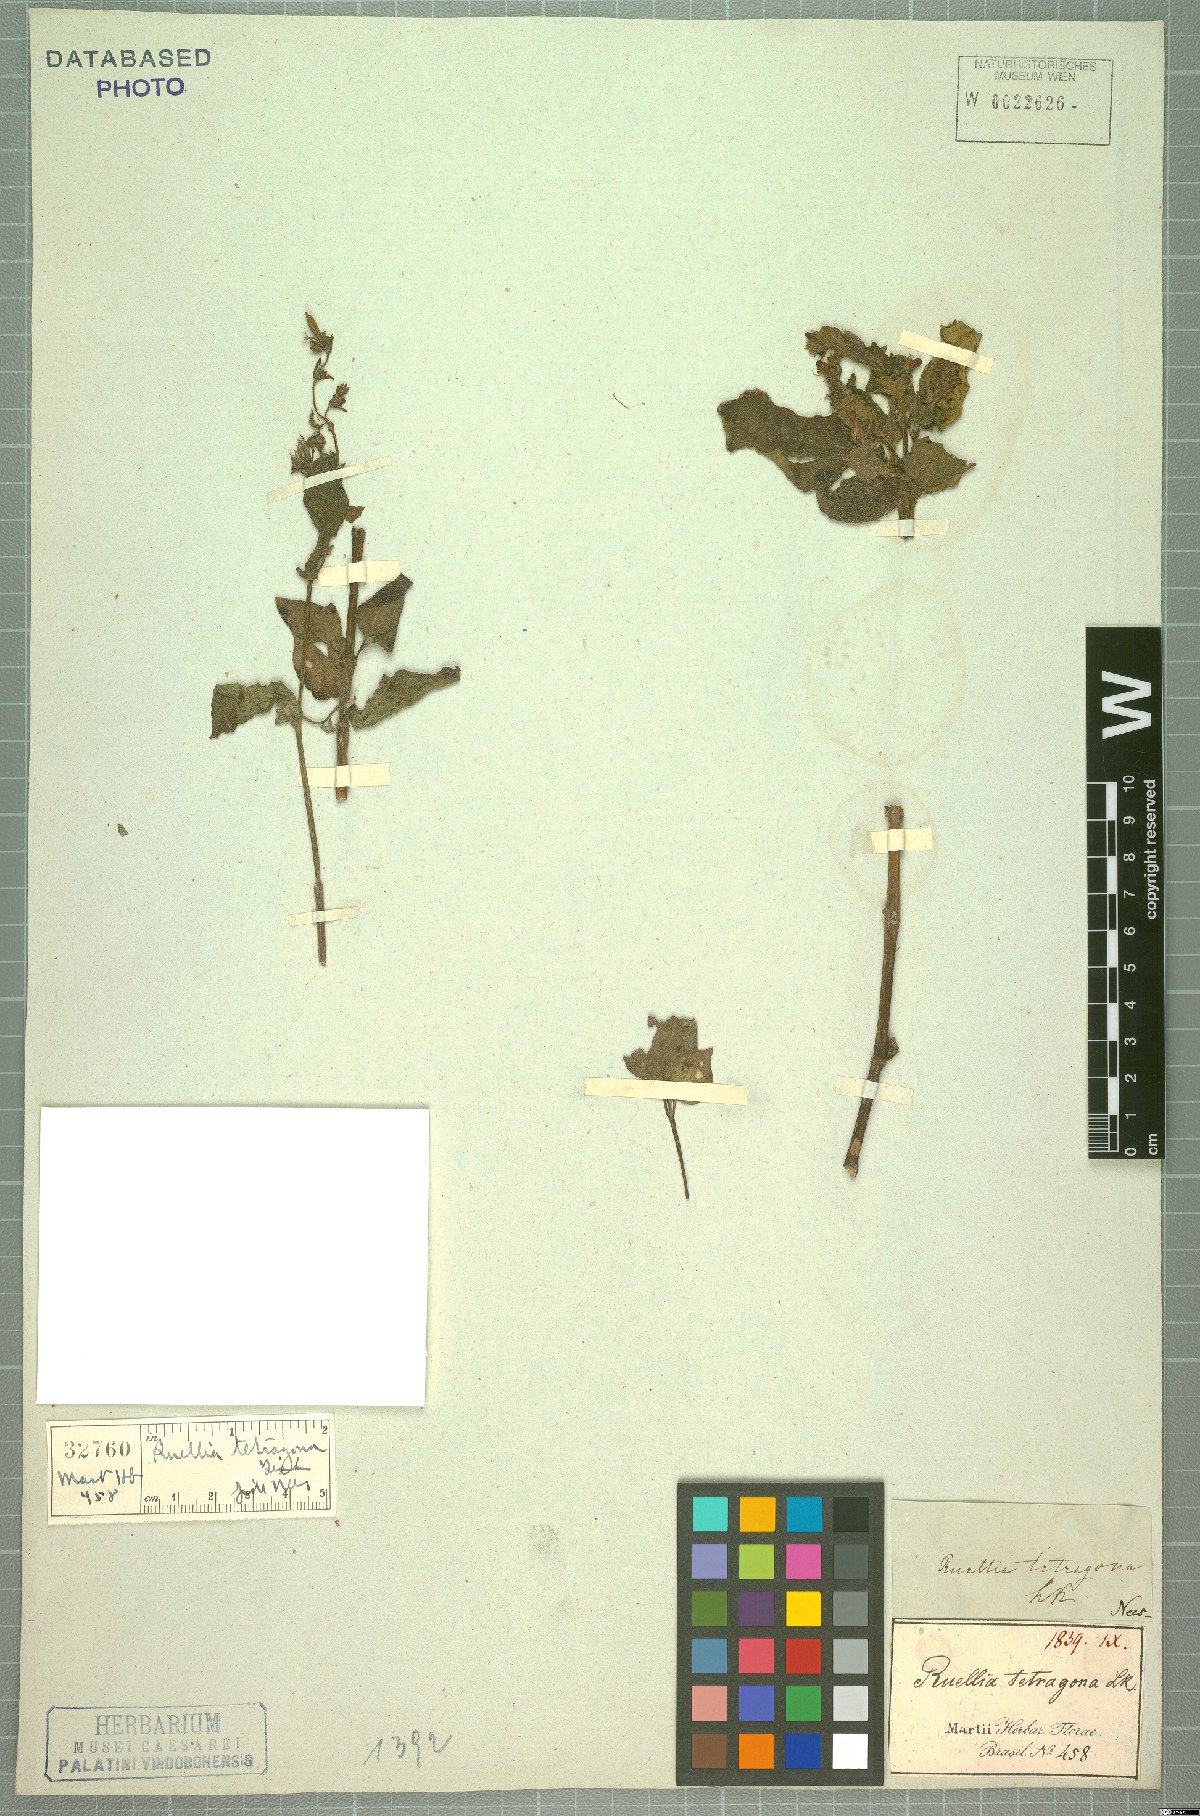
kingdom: Plantae
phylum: Tracheophyta
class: Magnoliopsida
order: Lamiales
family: Acanthaceae
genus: Ruellia
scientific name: Ruellia tetragona
